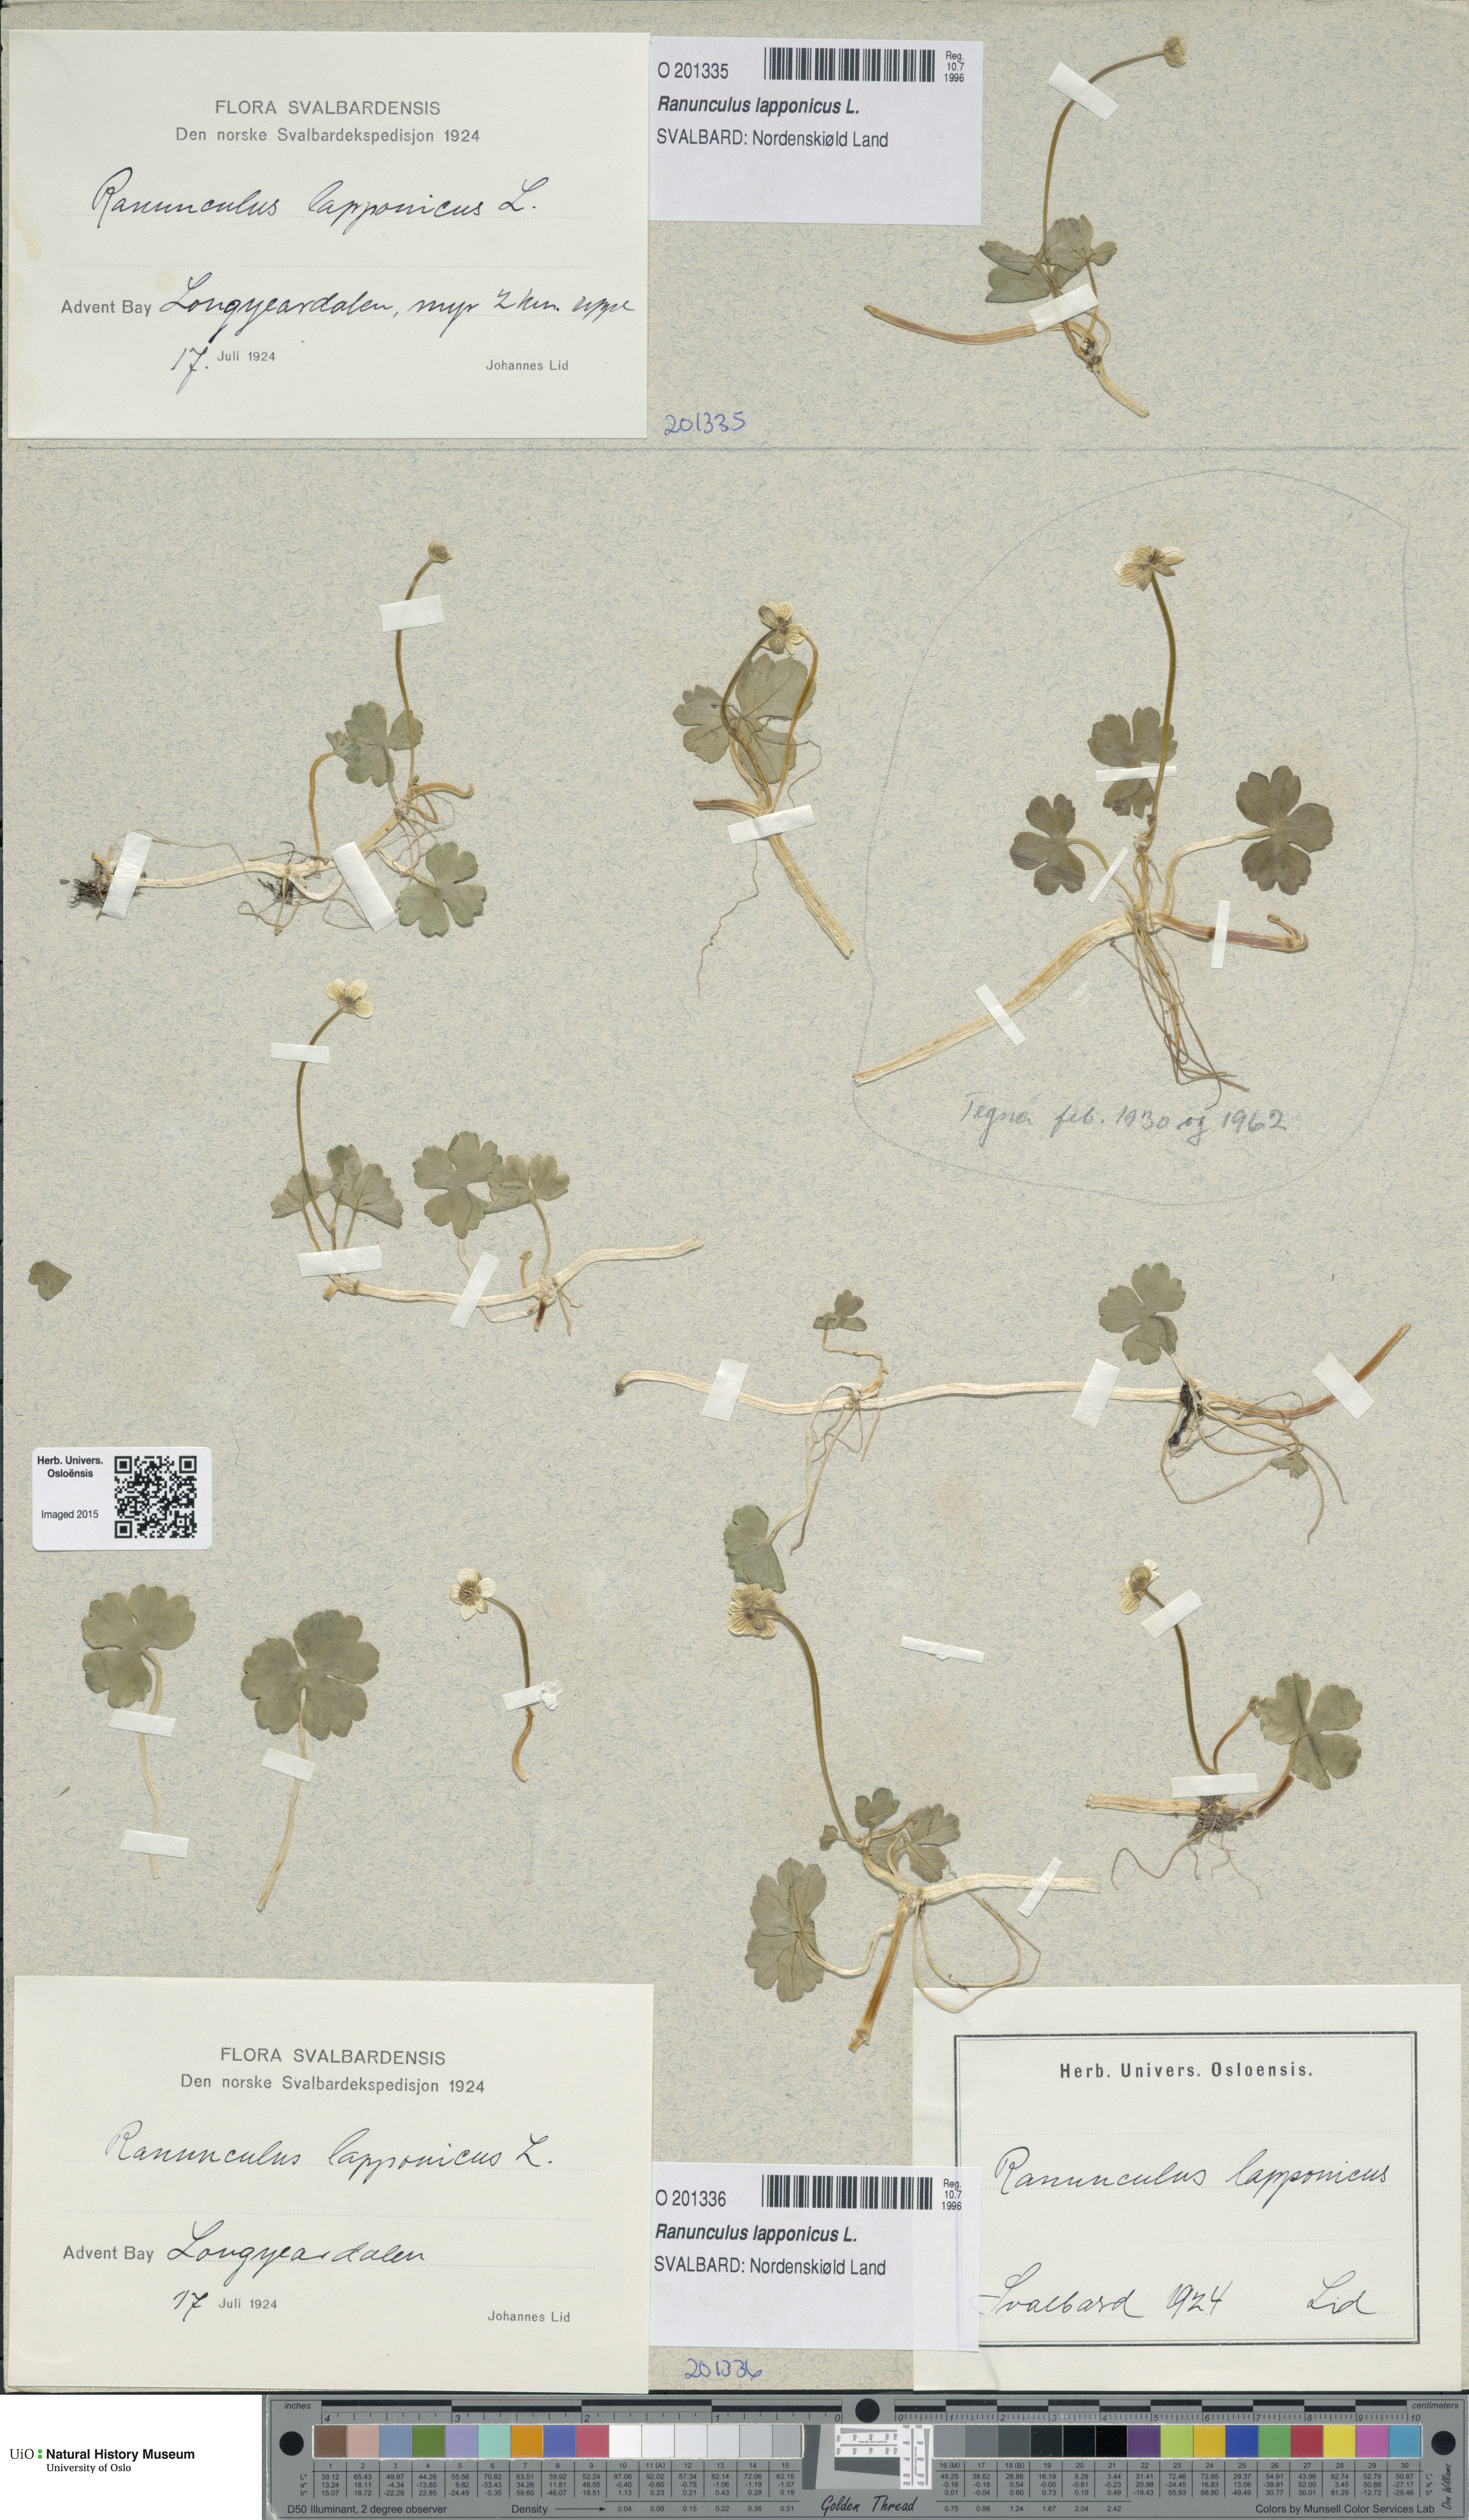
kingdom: Plantae
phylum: Tracheophyta
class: Magnoliopsida
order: Ranunculales
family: Ranunculaceae
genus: Coptidium
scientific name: Coptidium lapponicum
